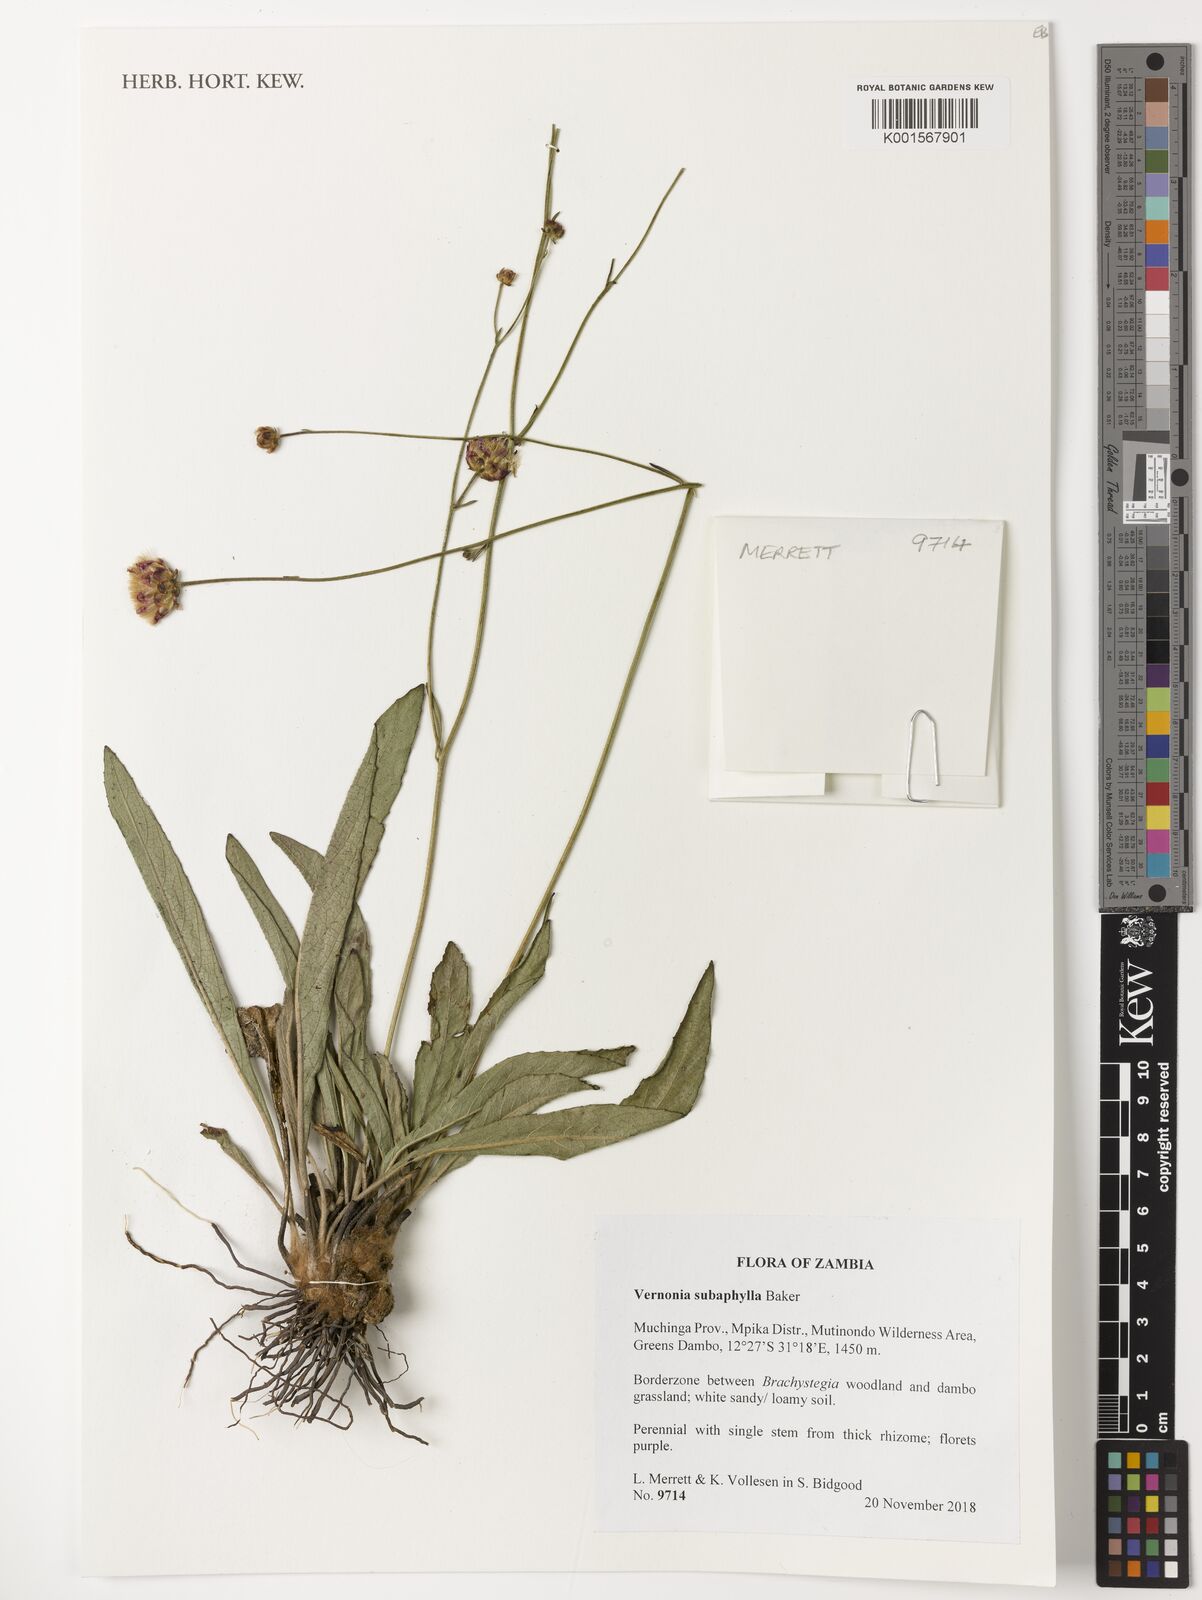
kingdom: Plantae
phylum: Tracheophyta
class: Magnoliopsida
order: Asterales
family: Asteraceae
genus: Vernonella
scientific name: Vernonella subaphylla
